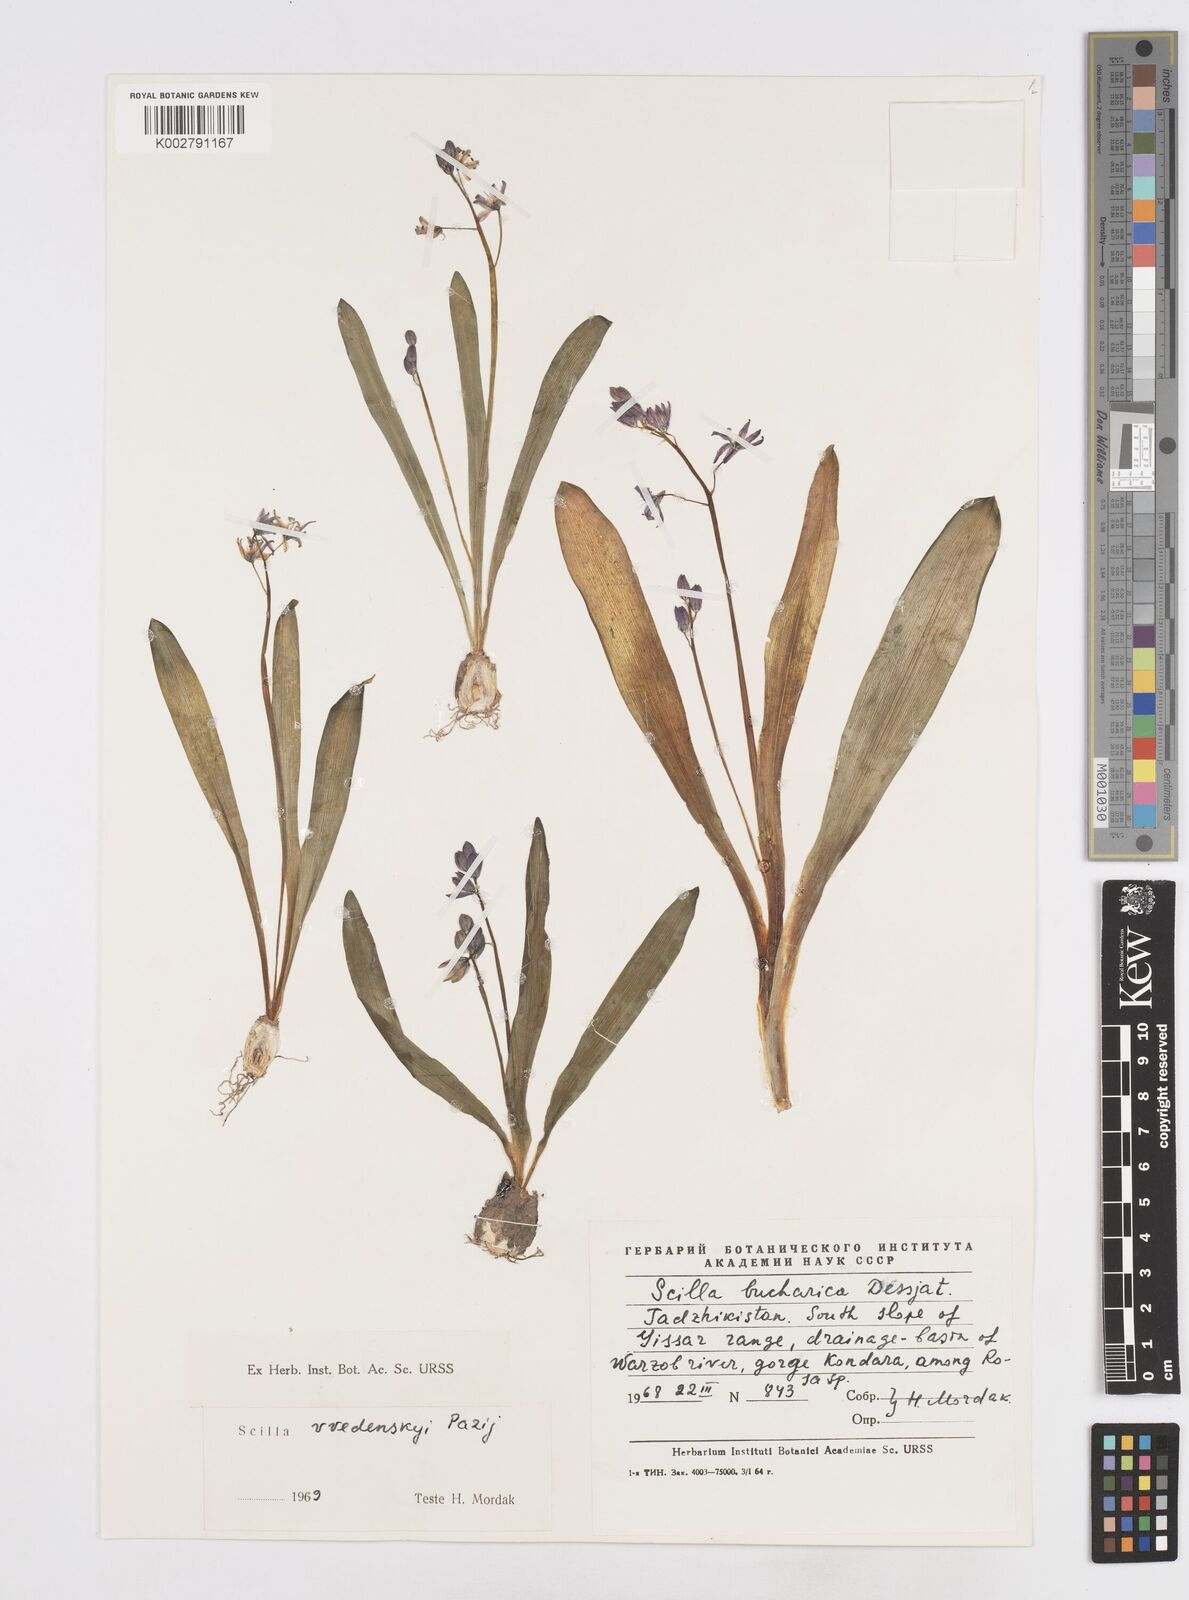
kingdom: Plantae
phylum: Tracheophyta
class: Liliopsida
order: Asparagales
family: Asparagaceae
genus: Fessia
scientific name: Fessia vvedenskyi
